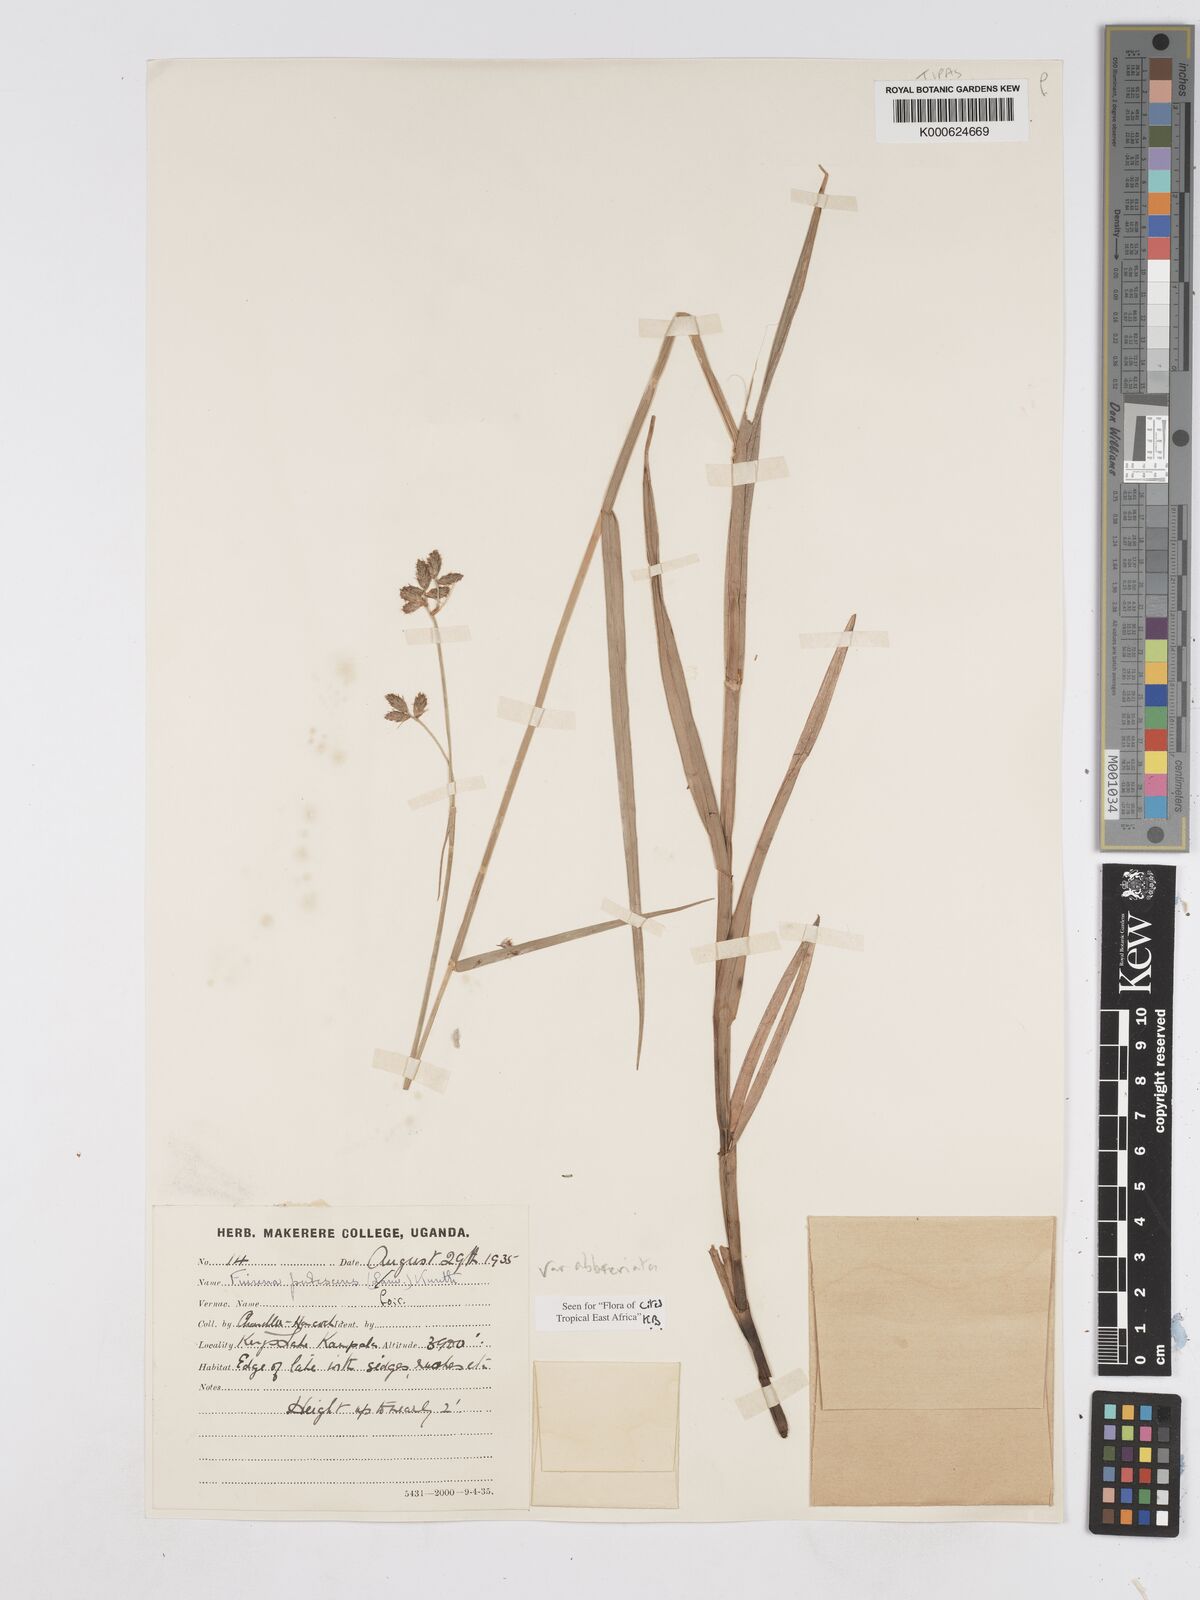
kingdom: Plantae
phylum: Tracheophyta
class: Liliopsida
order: Poales
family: Cyperaceae
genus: Fuirena
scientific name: Fuirena pubescens
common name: Hairy sedge
